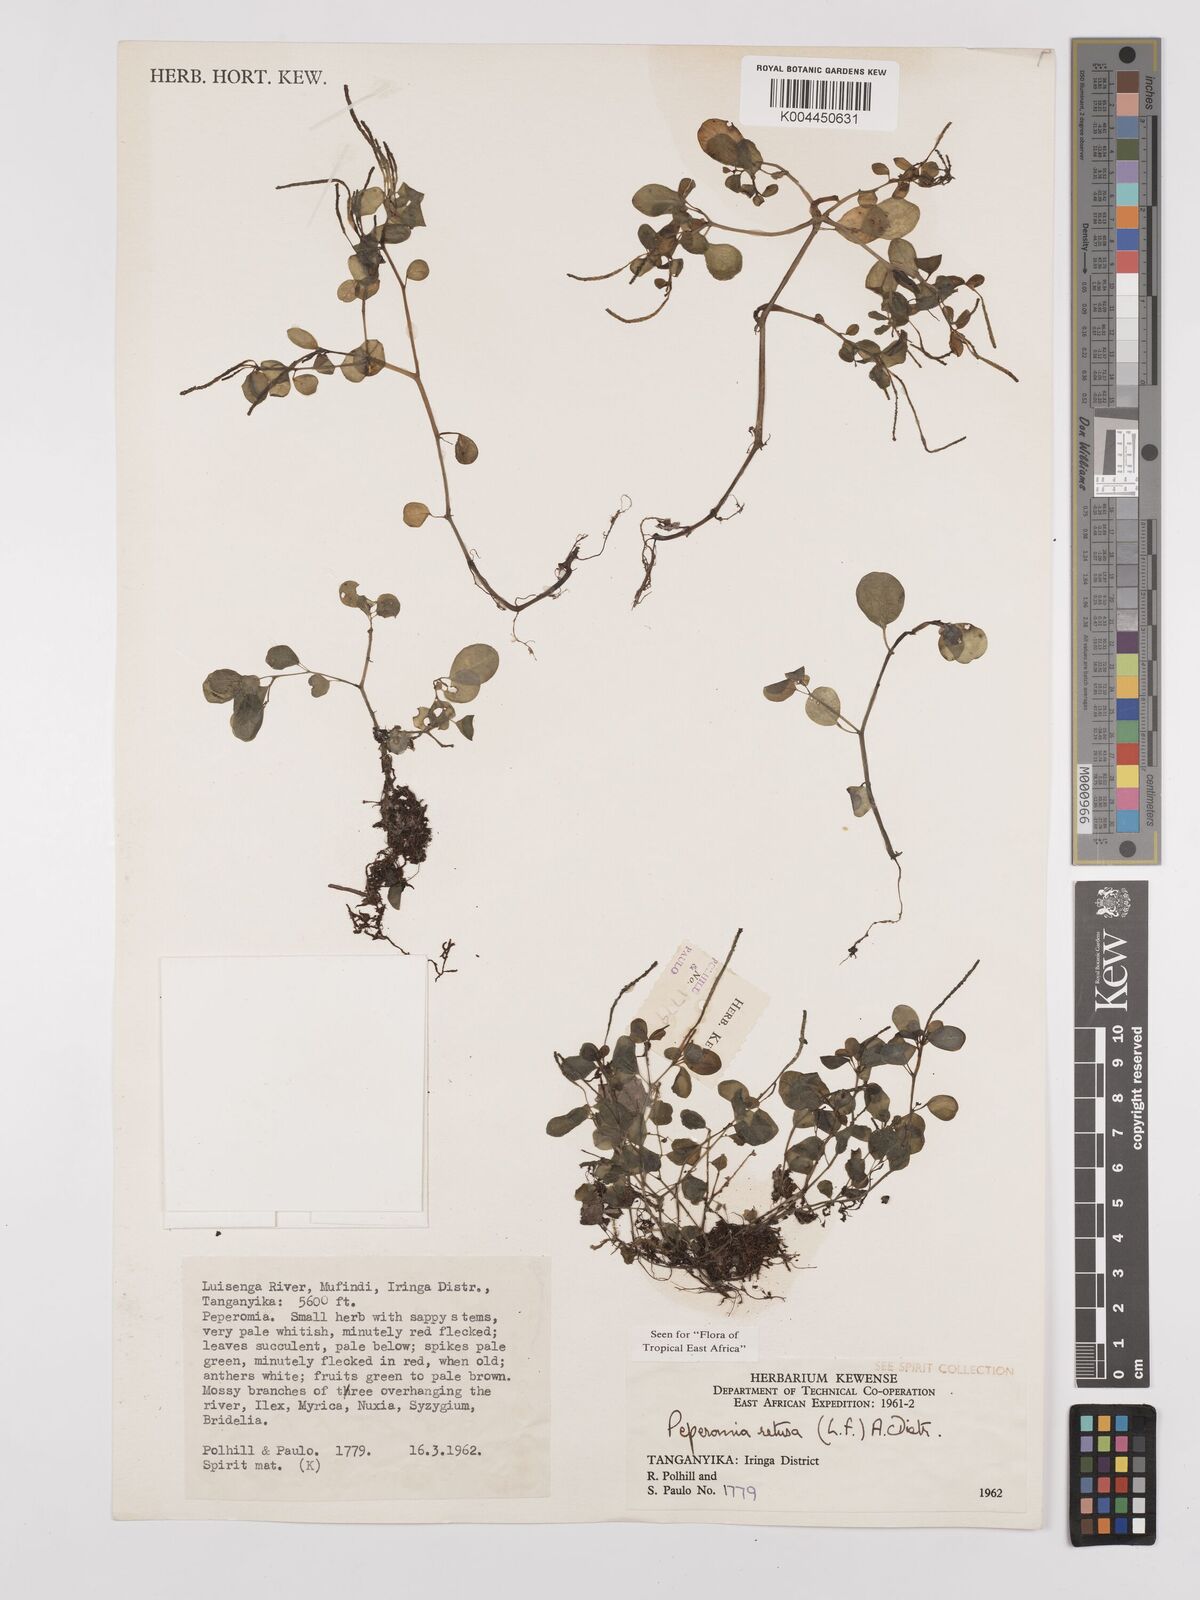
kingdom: Plantae
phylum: Tracheophyta
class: Magnoliopsida
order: Piperales
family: Piperaceae
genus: Peperomia
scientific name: Peperomia retusa
